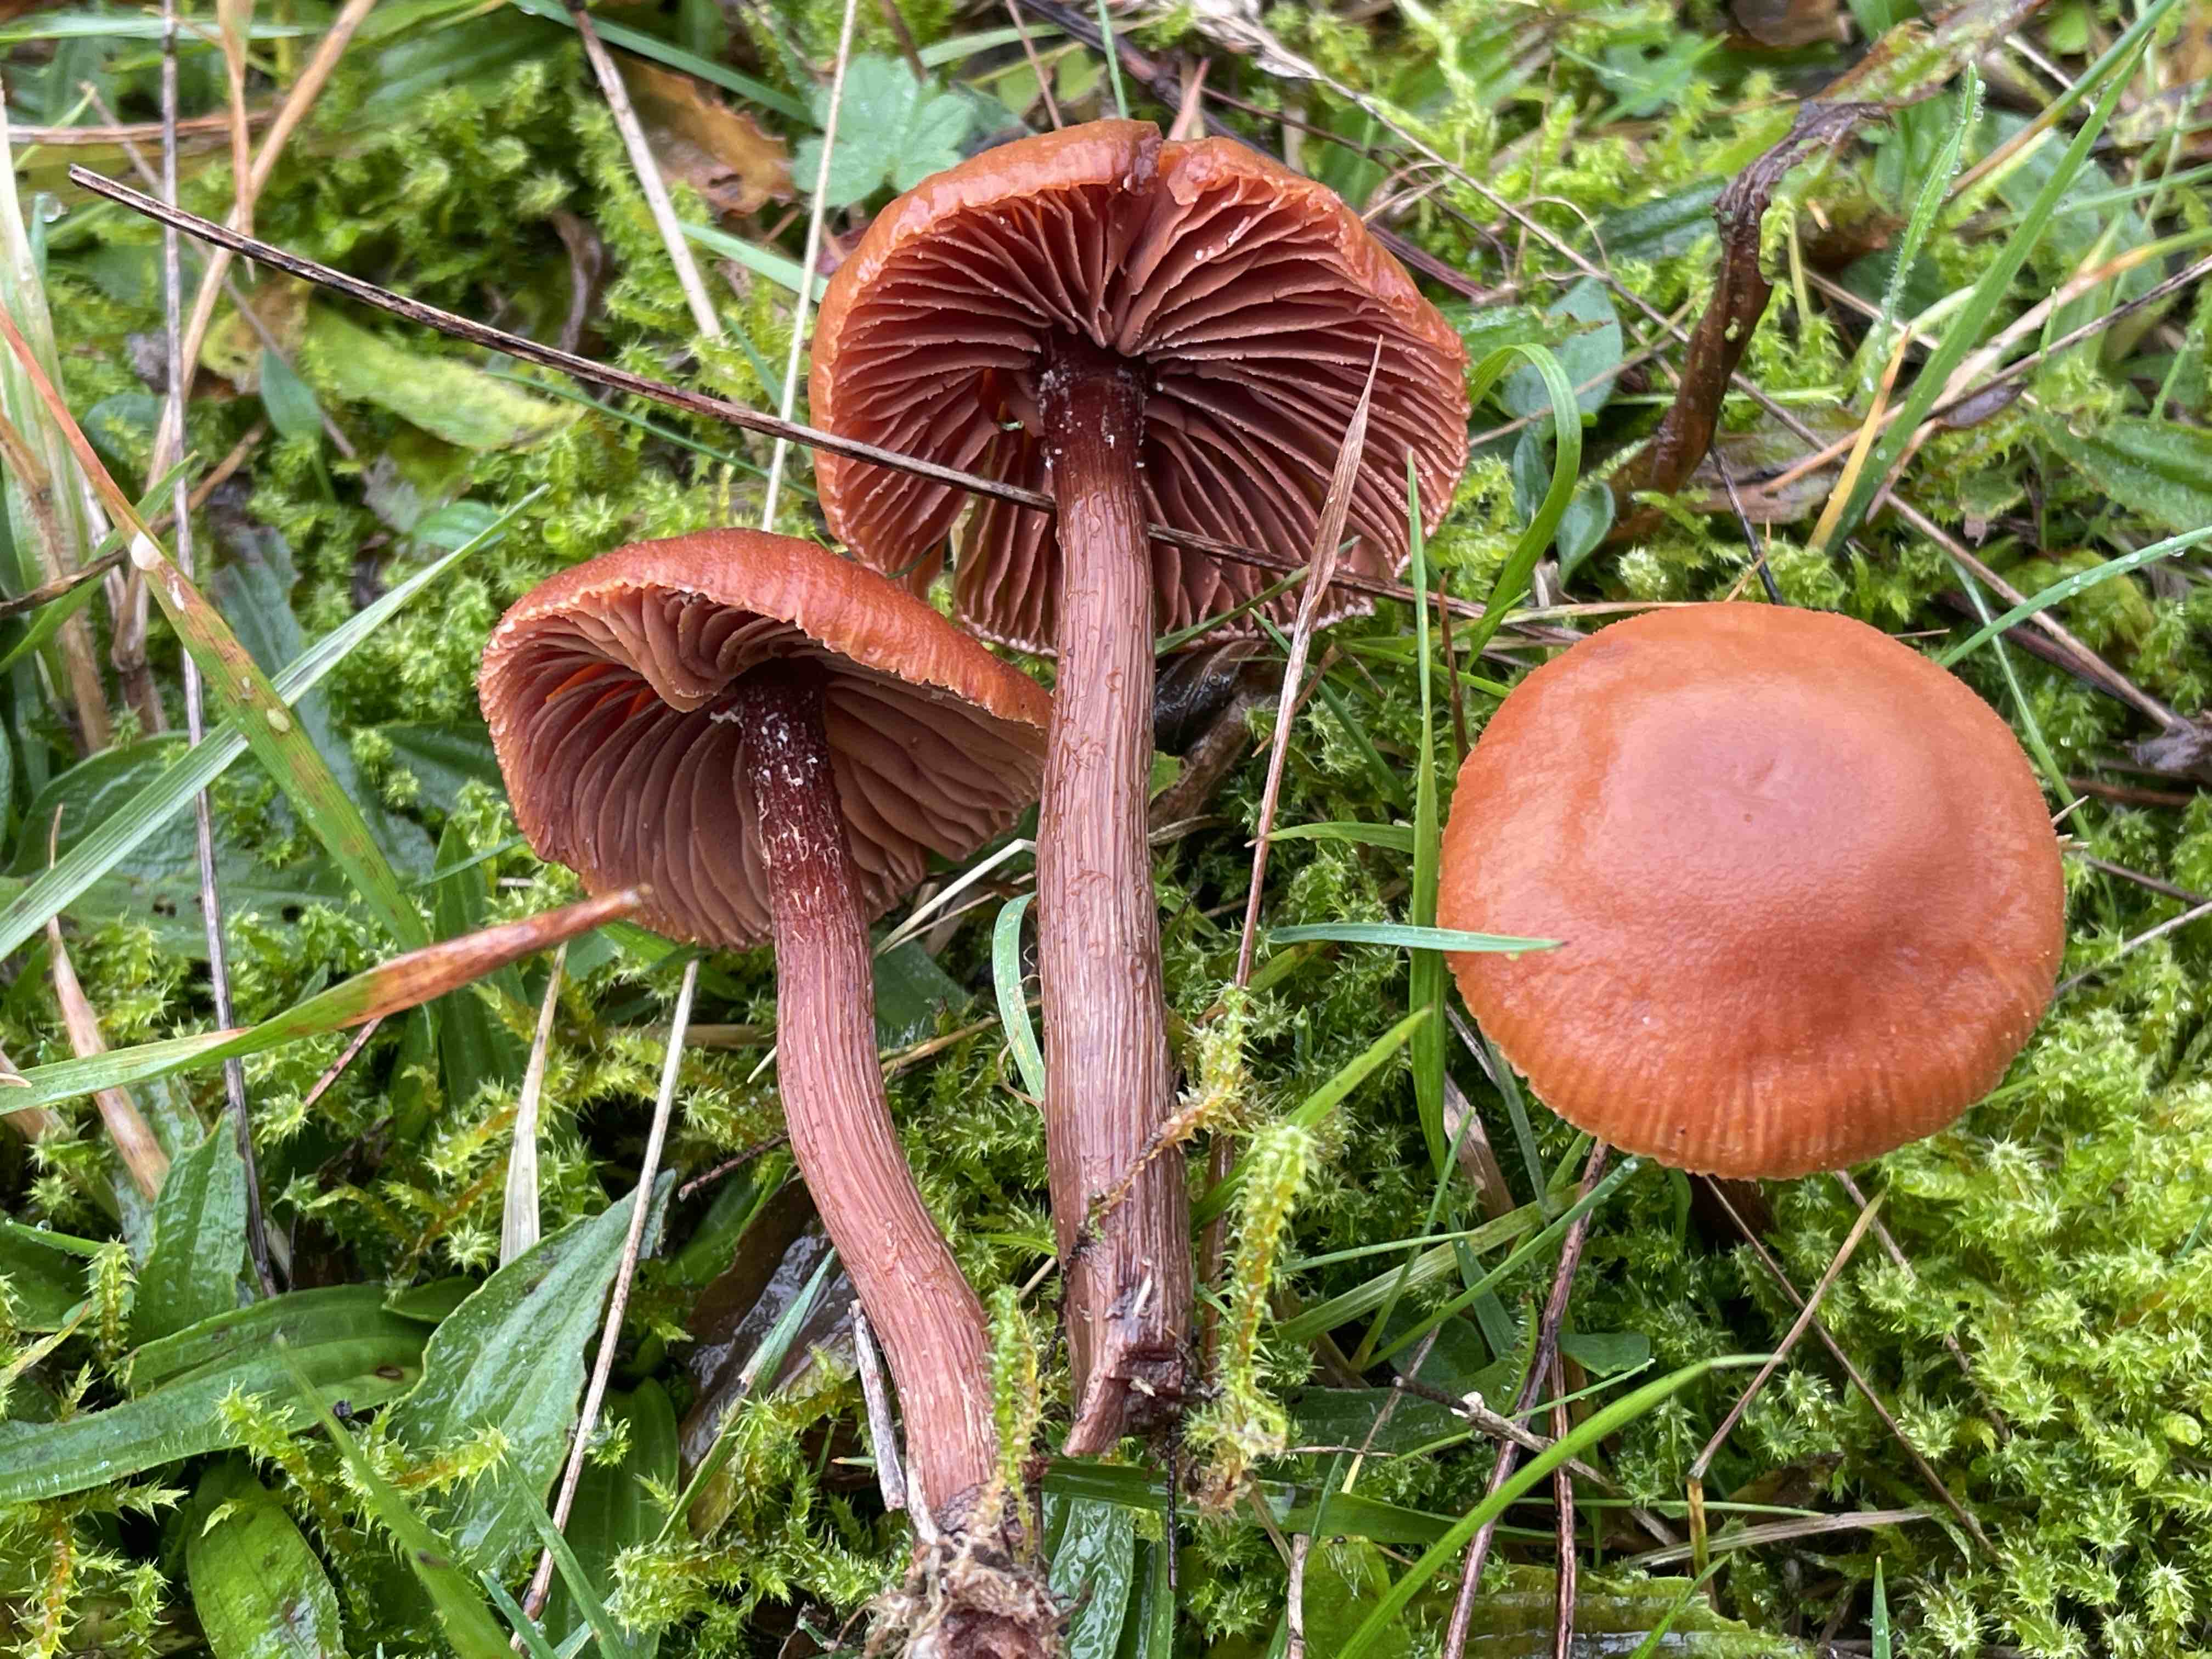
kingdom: Fungi
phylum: Basidiomycota
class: Agaricomycetes
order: Agaricales
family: Hydnangiaceae
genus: Laccaria
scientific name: Laccaria proxima
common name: stor ametysthat
